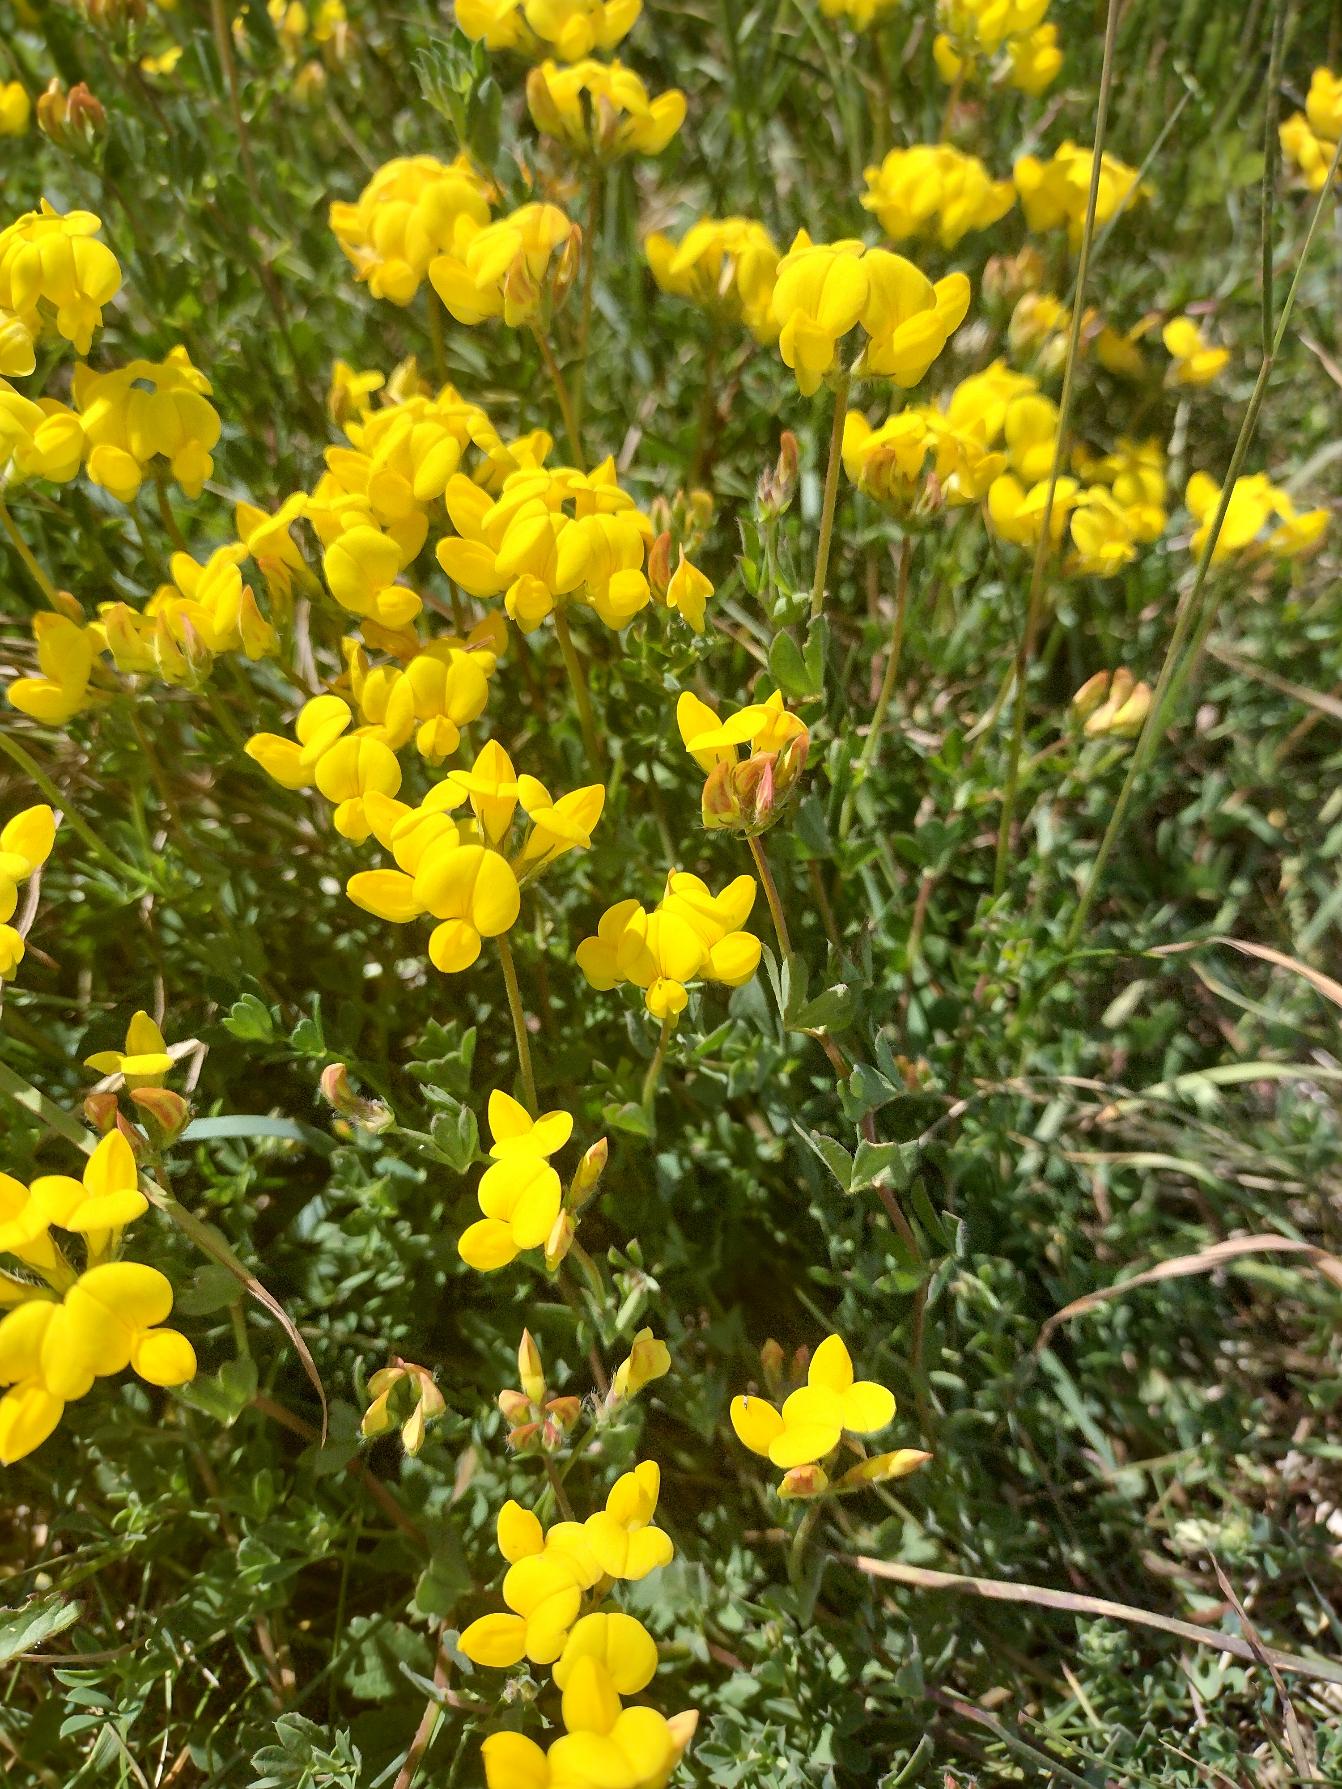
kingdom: Plantae
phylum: Tracheophyta
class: Magnoliopsida
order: Fabales
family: Fabaceae
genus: Lotus
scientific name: Lotus corniculatus
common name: Almindelig kællingetand
